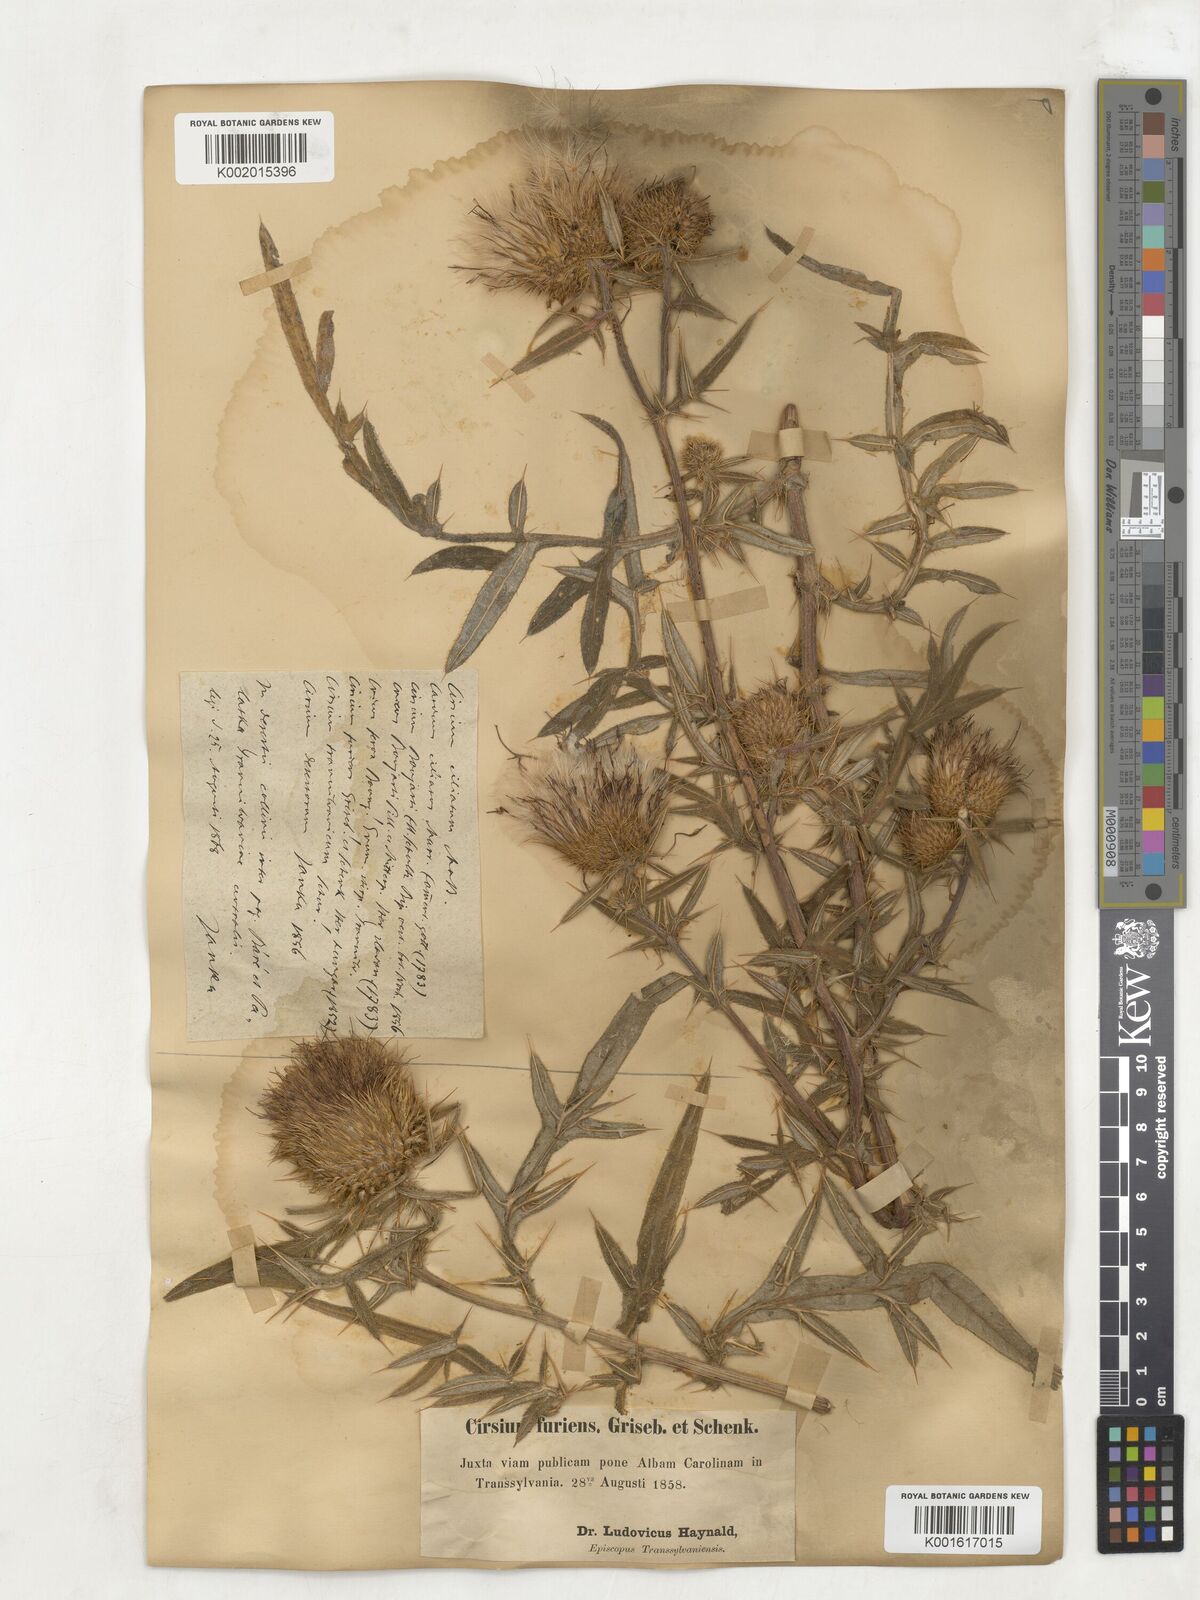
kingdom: Plantae
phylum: Tracheophyta
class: Magnoliopsida
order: Asterales
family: Asteraceae
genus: Lophiolepis
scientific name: Lophiolepis furiens
